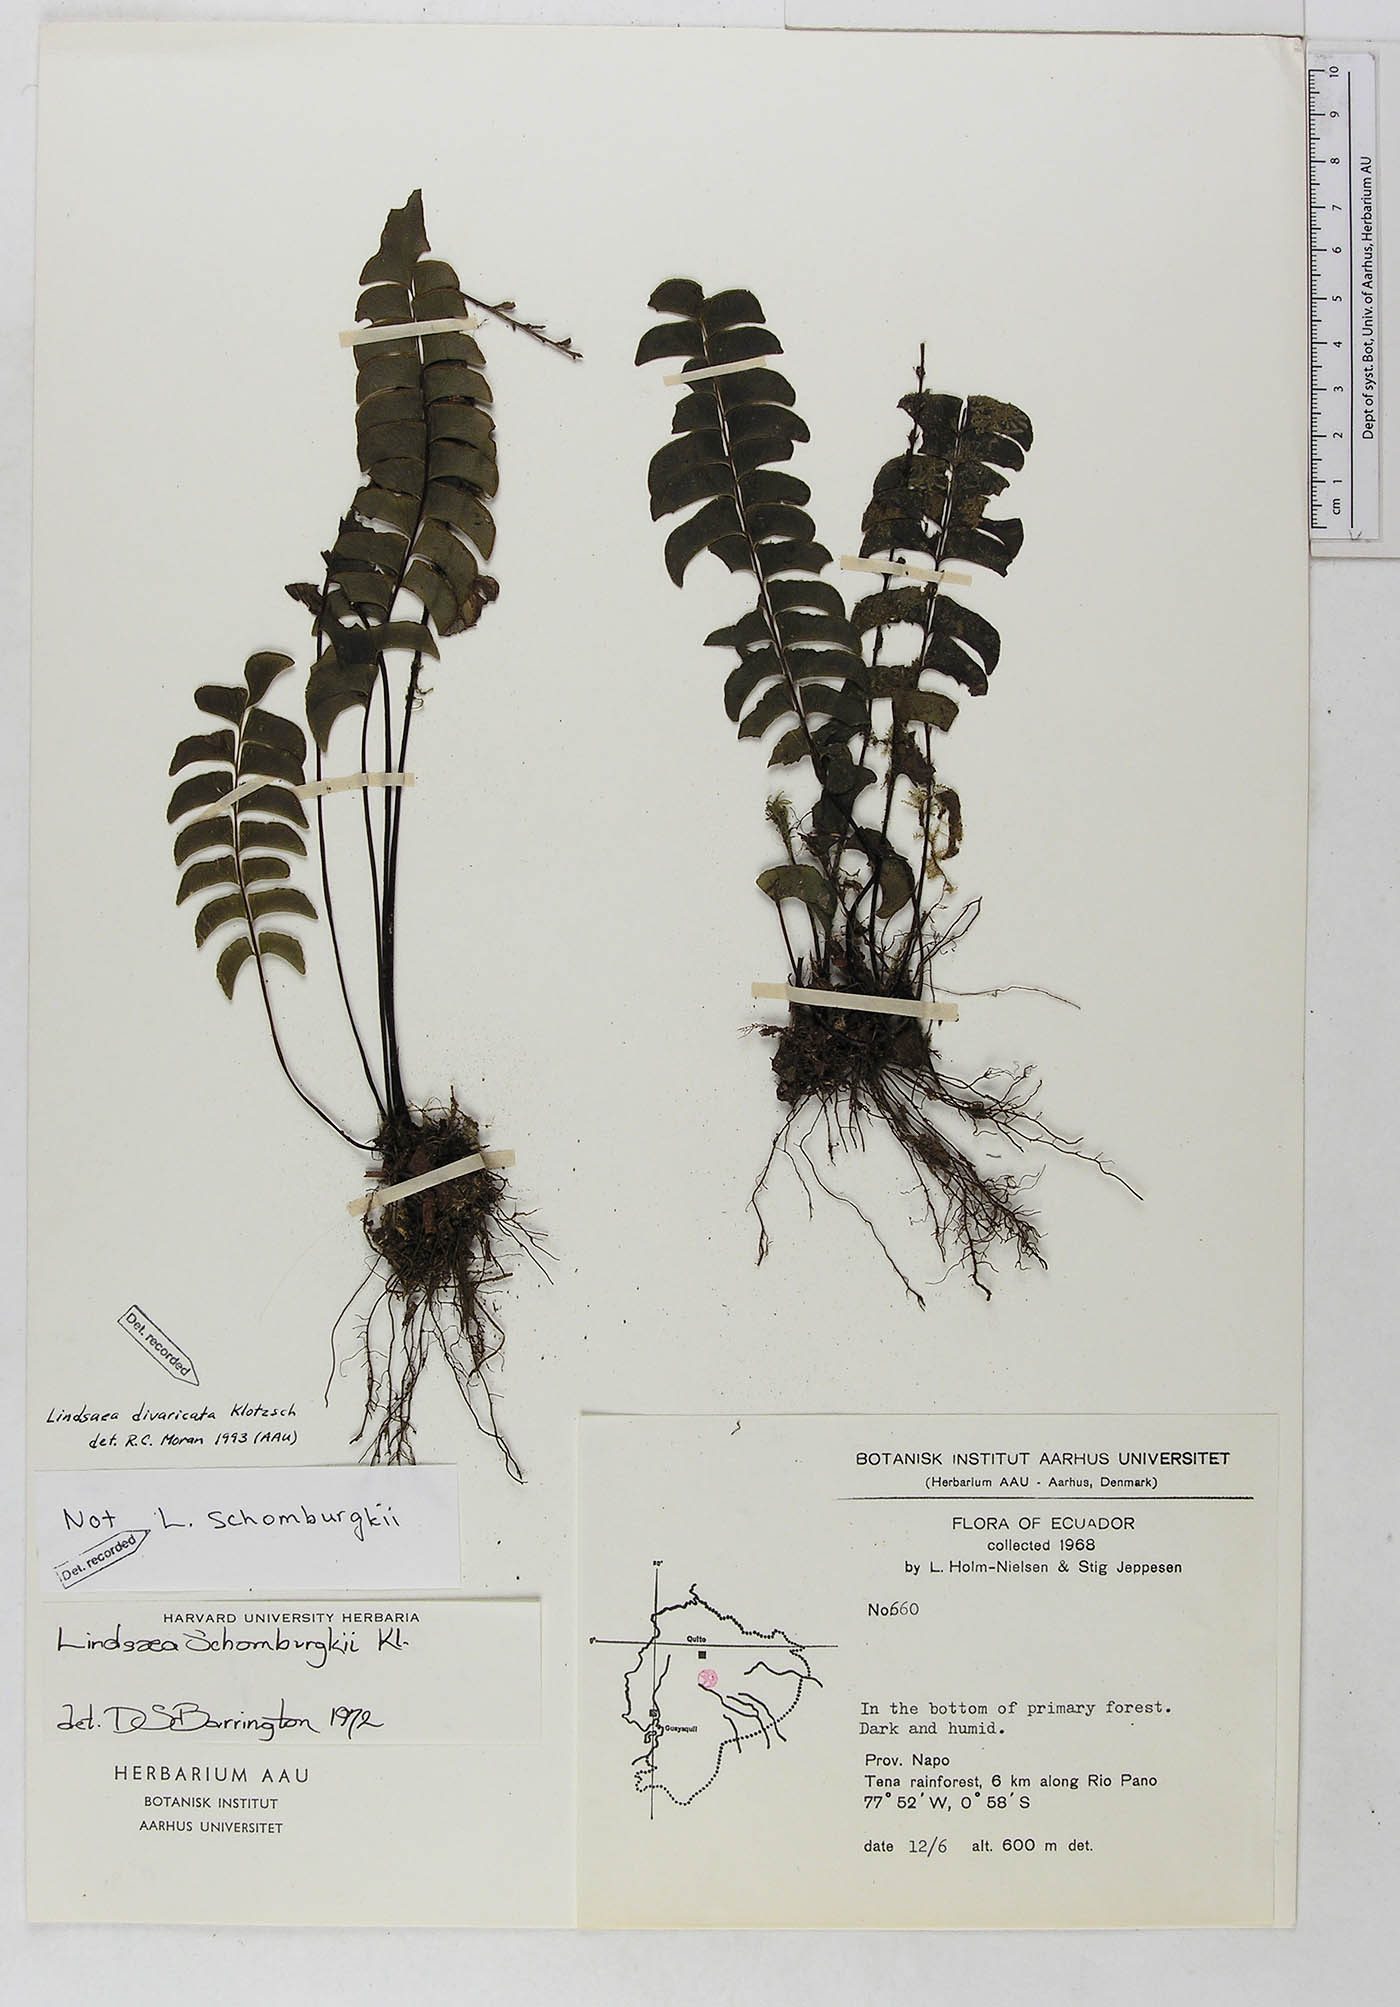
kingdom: Plantae
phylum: Tracheophyta
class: Polypodiopsida
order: Polypodiales
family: Lindsaeaceae
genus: Lindsaea
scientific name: Lindsaea divaricata
